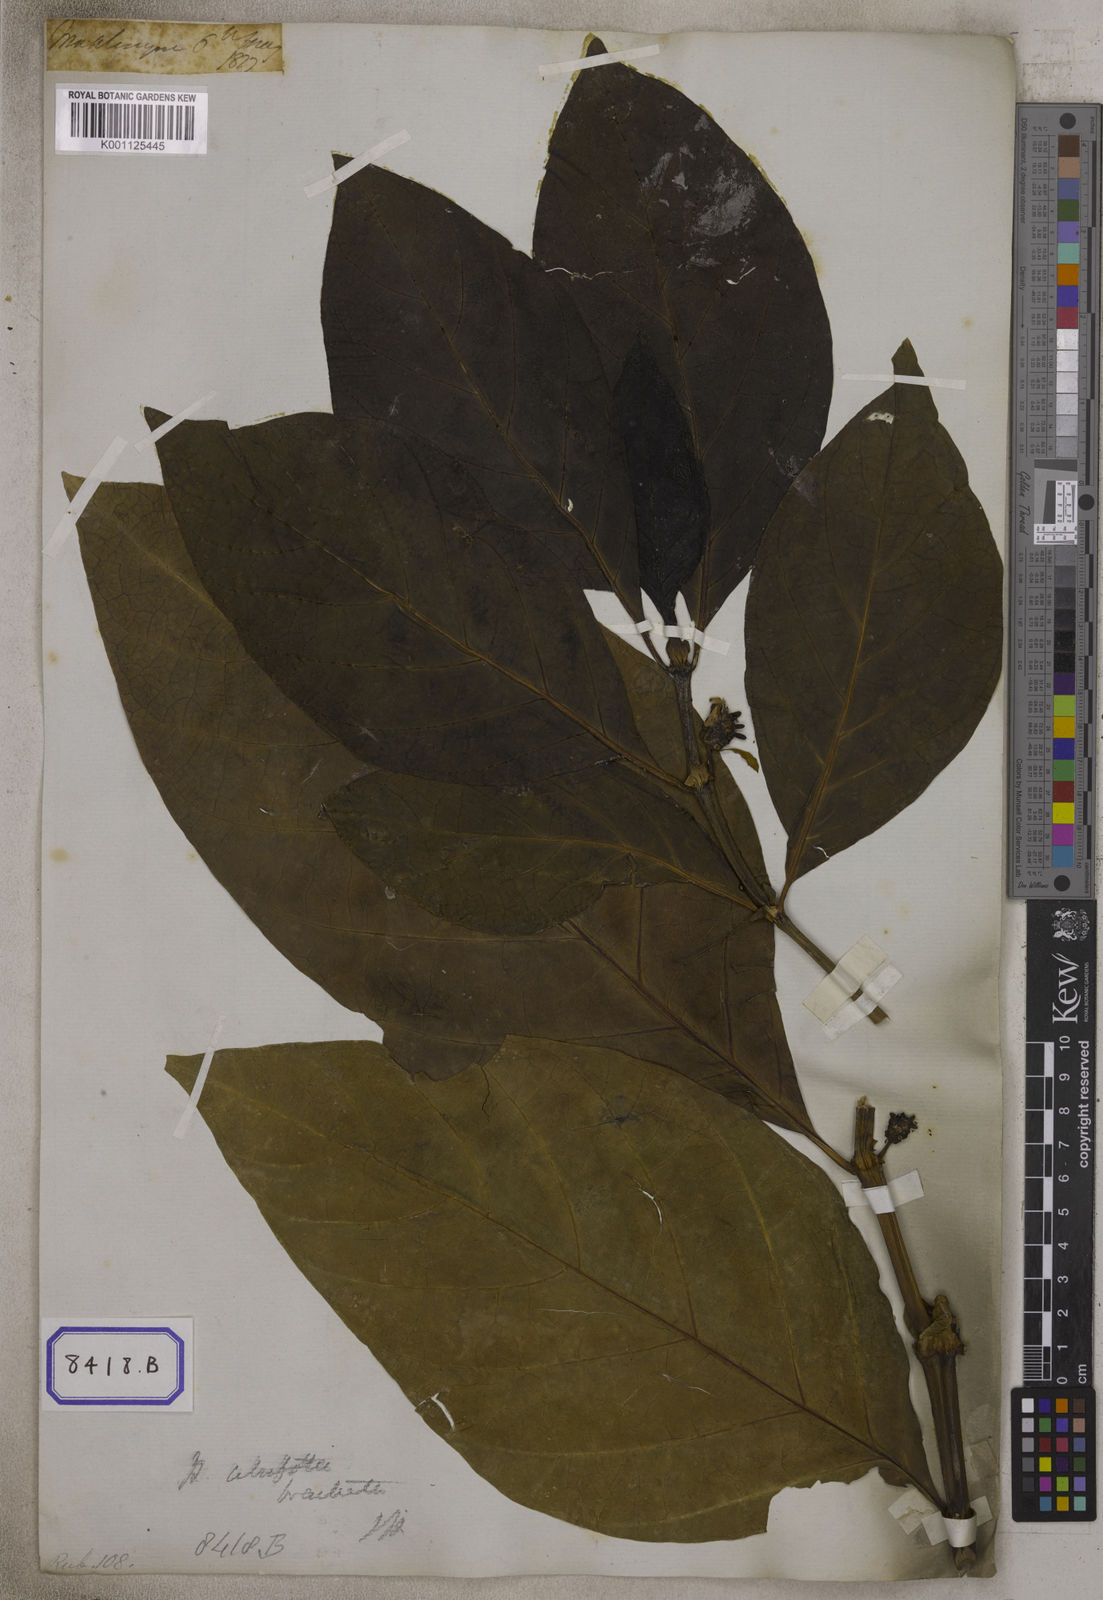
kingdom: Plantae
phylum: Tracheophyta
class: Magnoliopsida
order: Gentianales
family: Rubiaceae
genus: Morinda
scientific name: Morinda citrifolia
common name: Indian-mulberry
